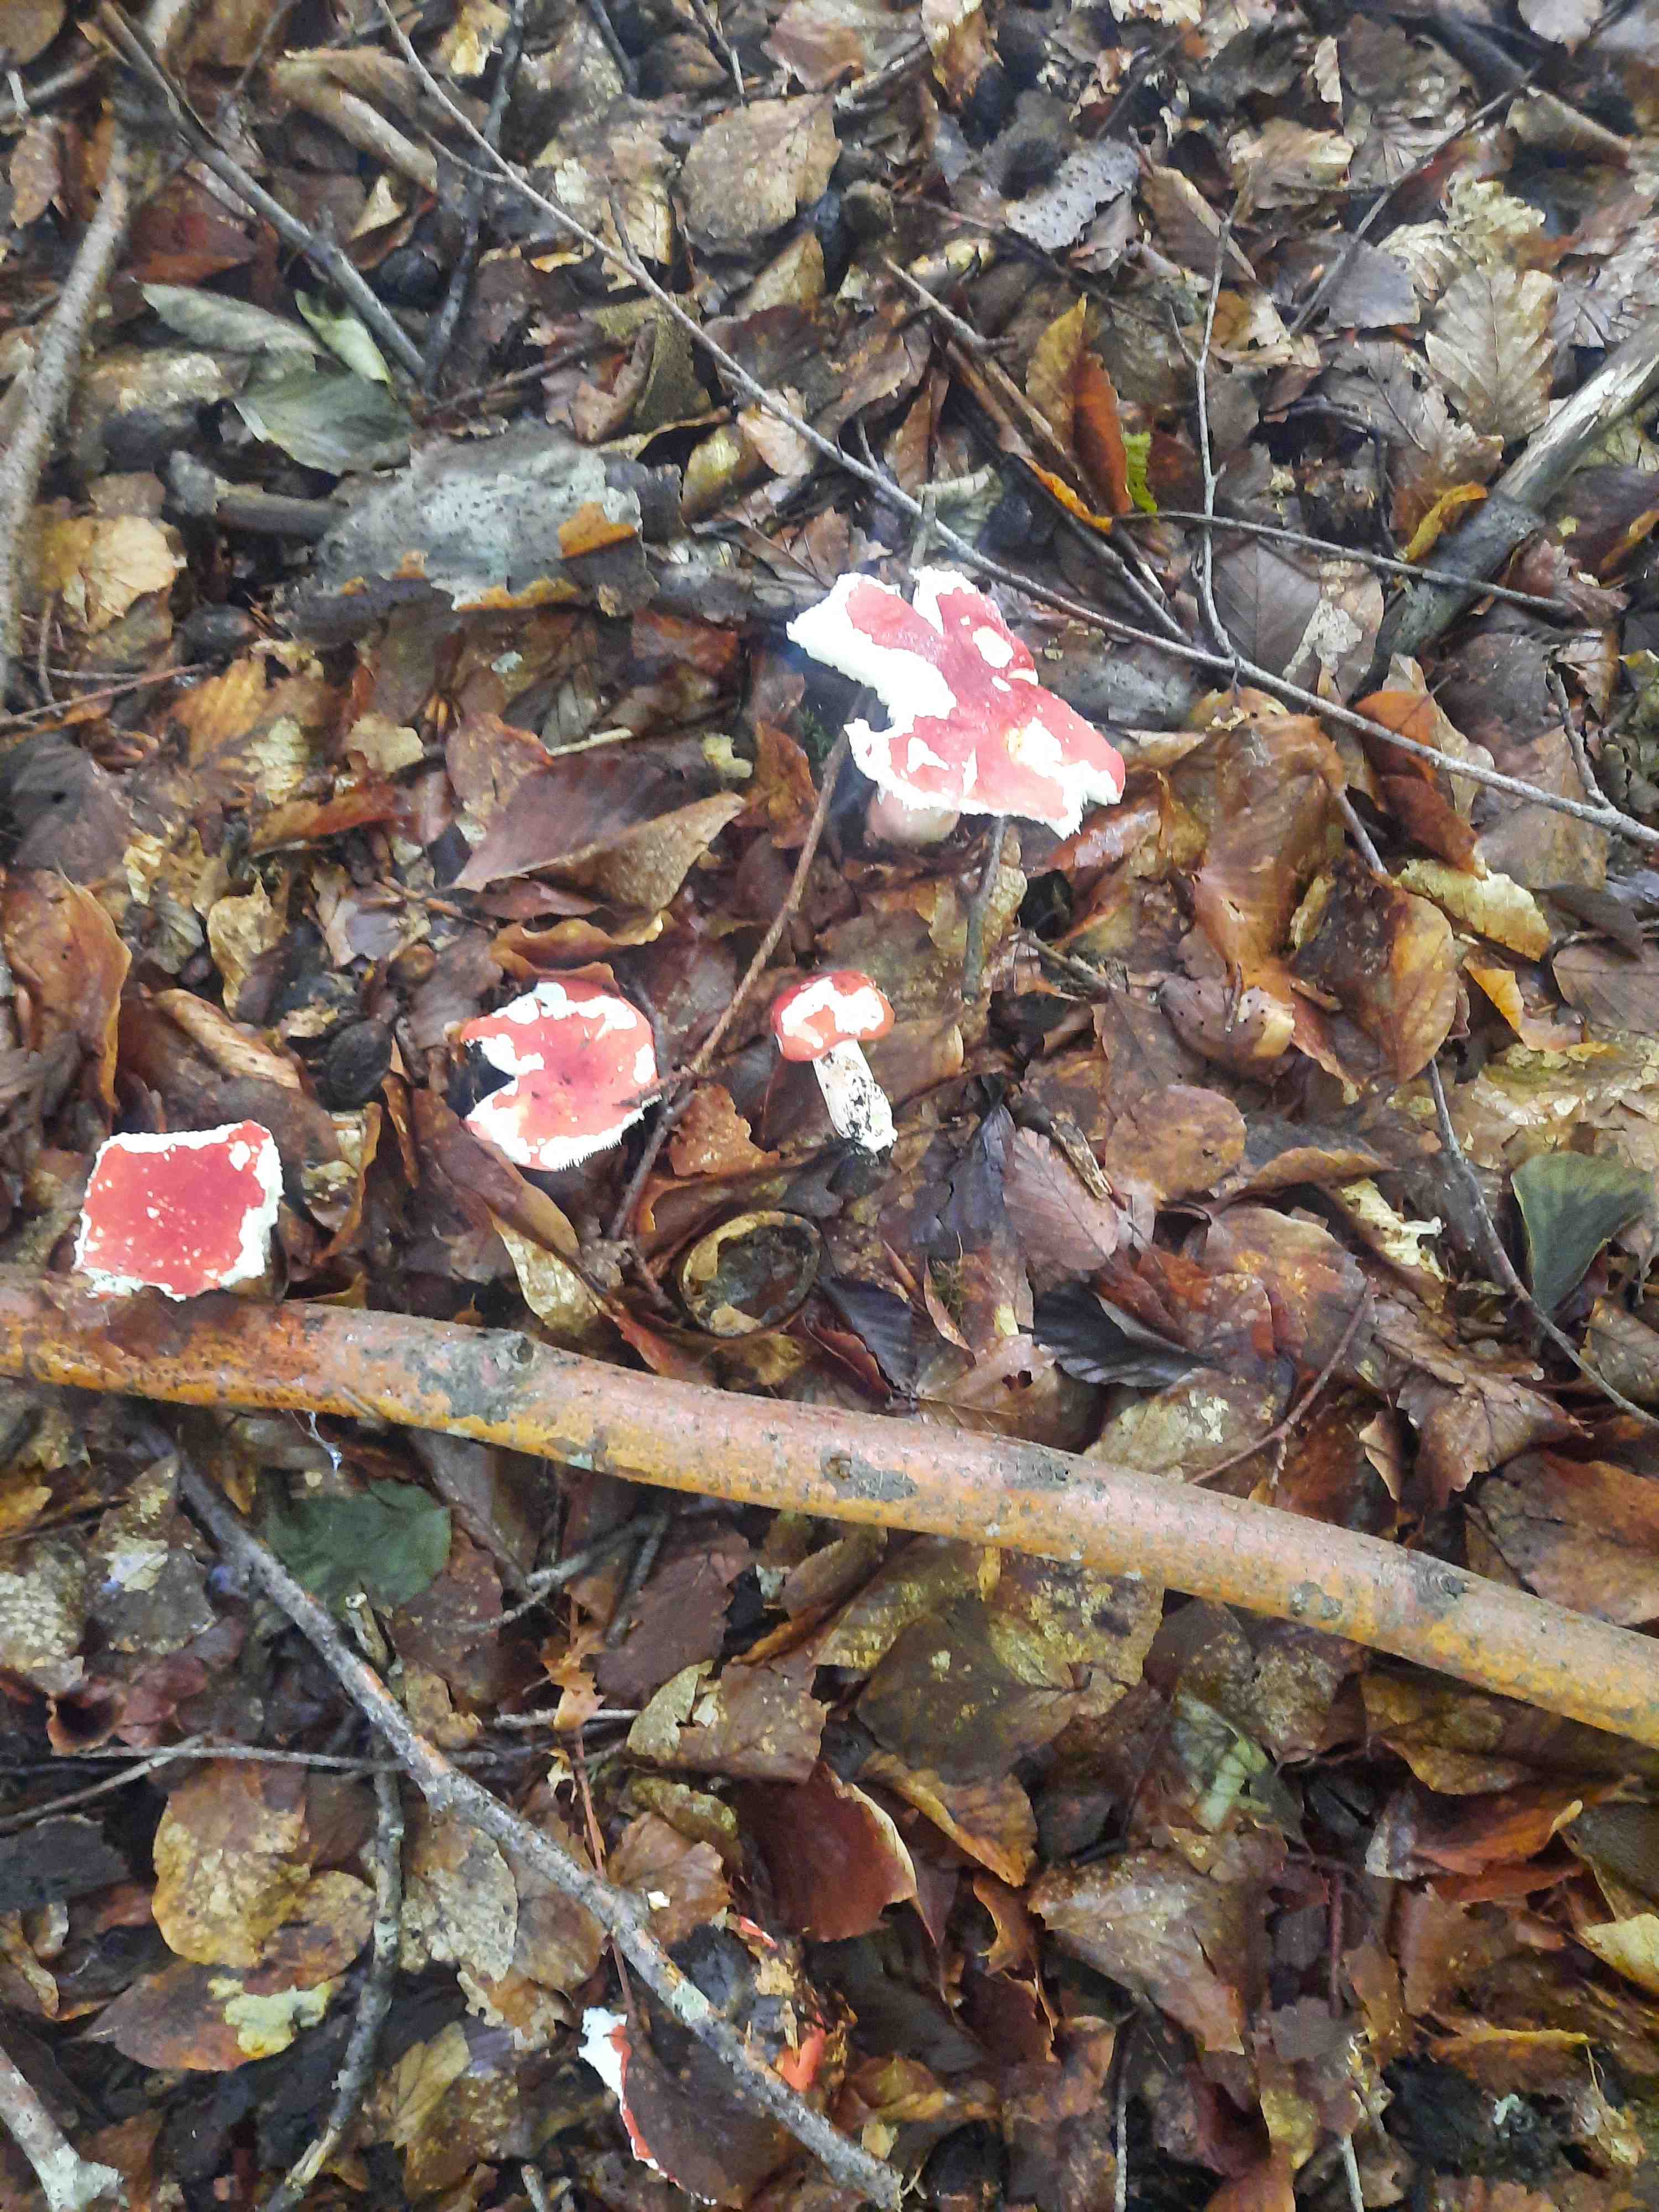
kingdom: Fungi
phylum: Basidiomycota
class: Agaricomycetes
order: Russulales
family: Russulaceae
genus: Russula
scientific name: Russula rosea
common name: fastkødet skørhat
